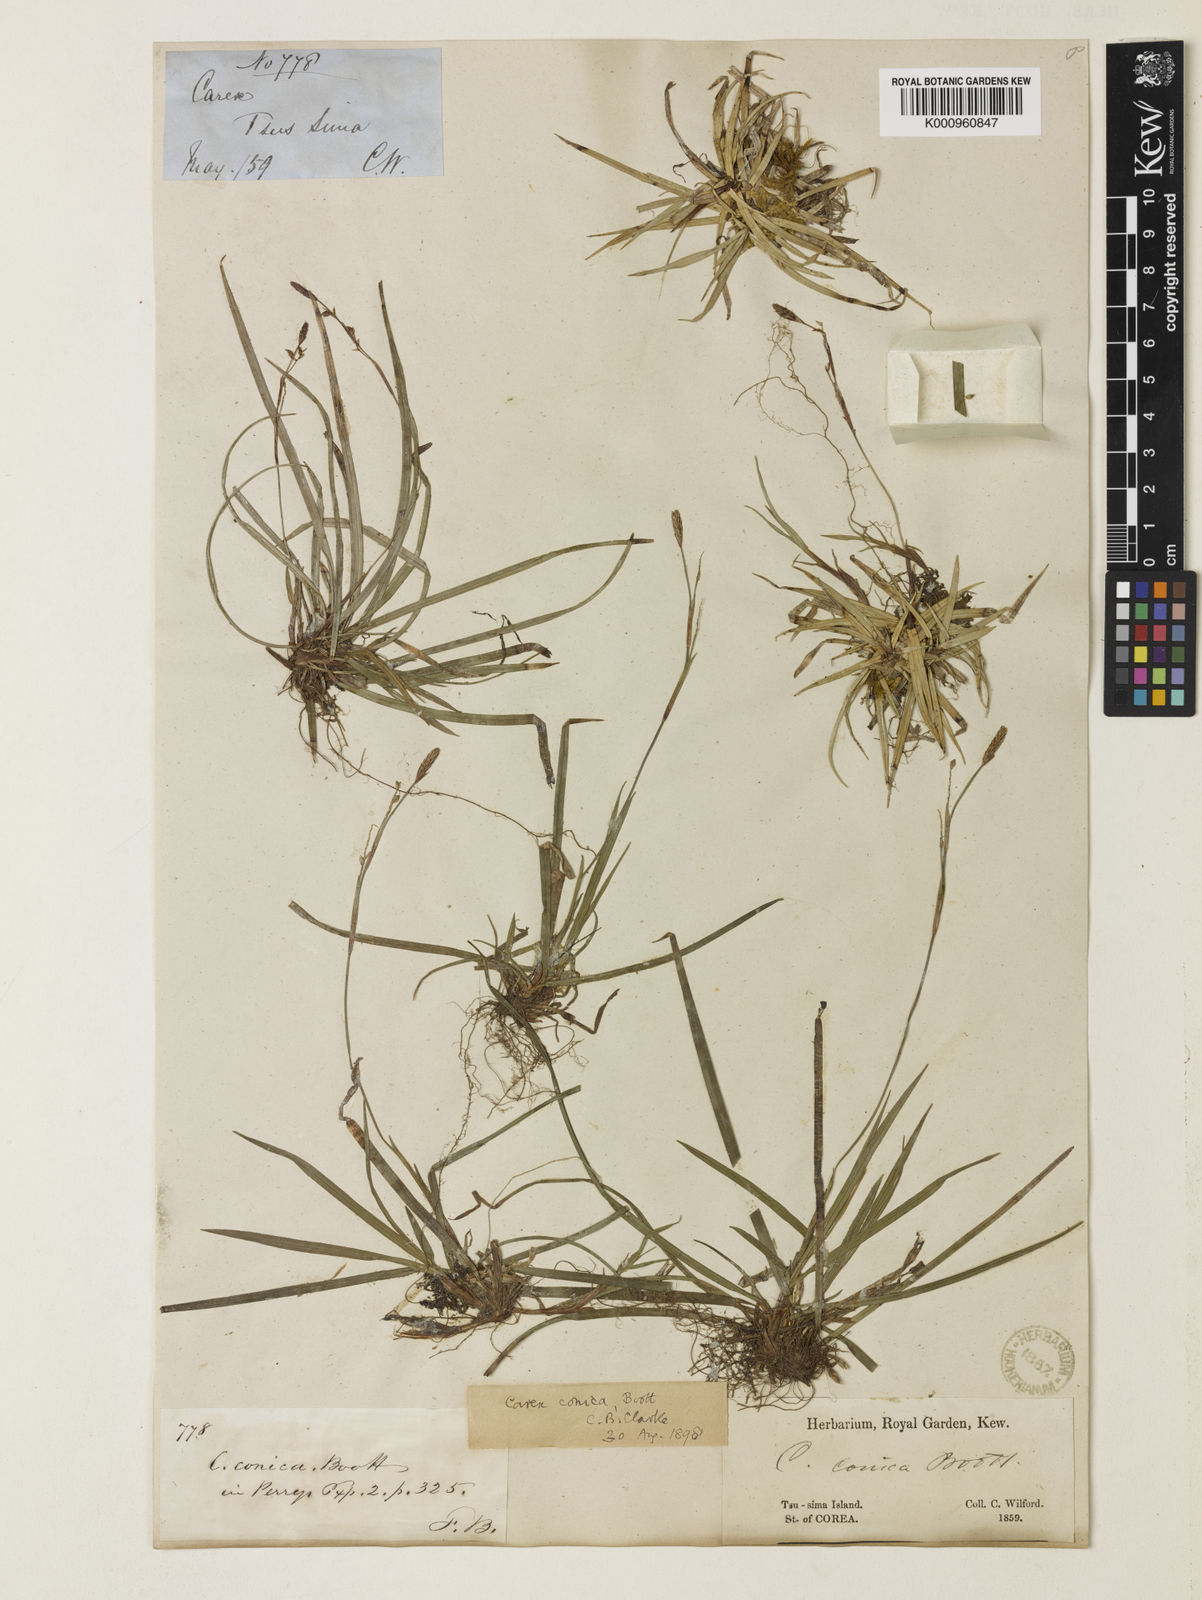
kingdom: Plantae
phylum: Tracheophyta
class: Liliopsida
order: Poales
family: Cyperaceae
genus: Carex
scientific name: Carex conica
